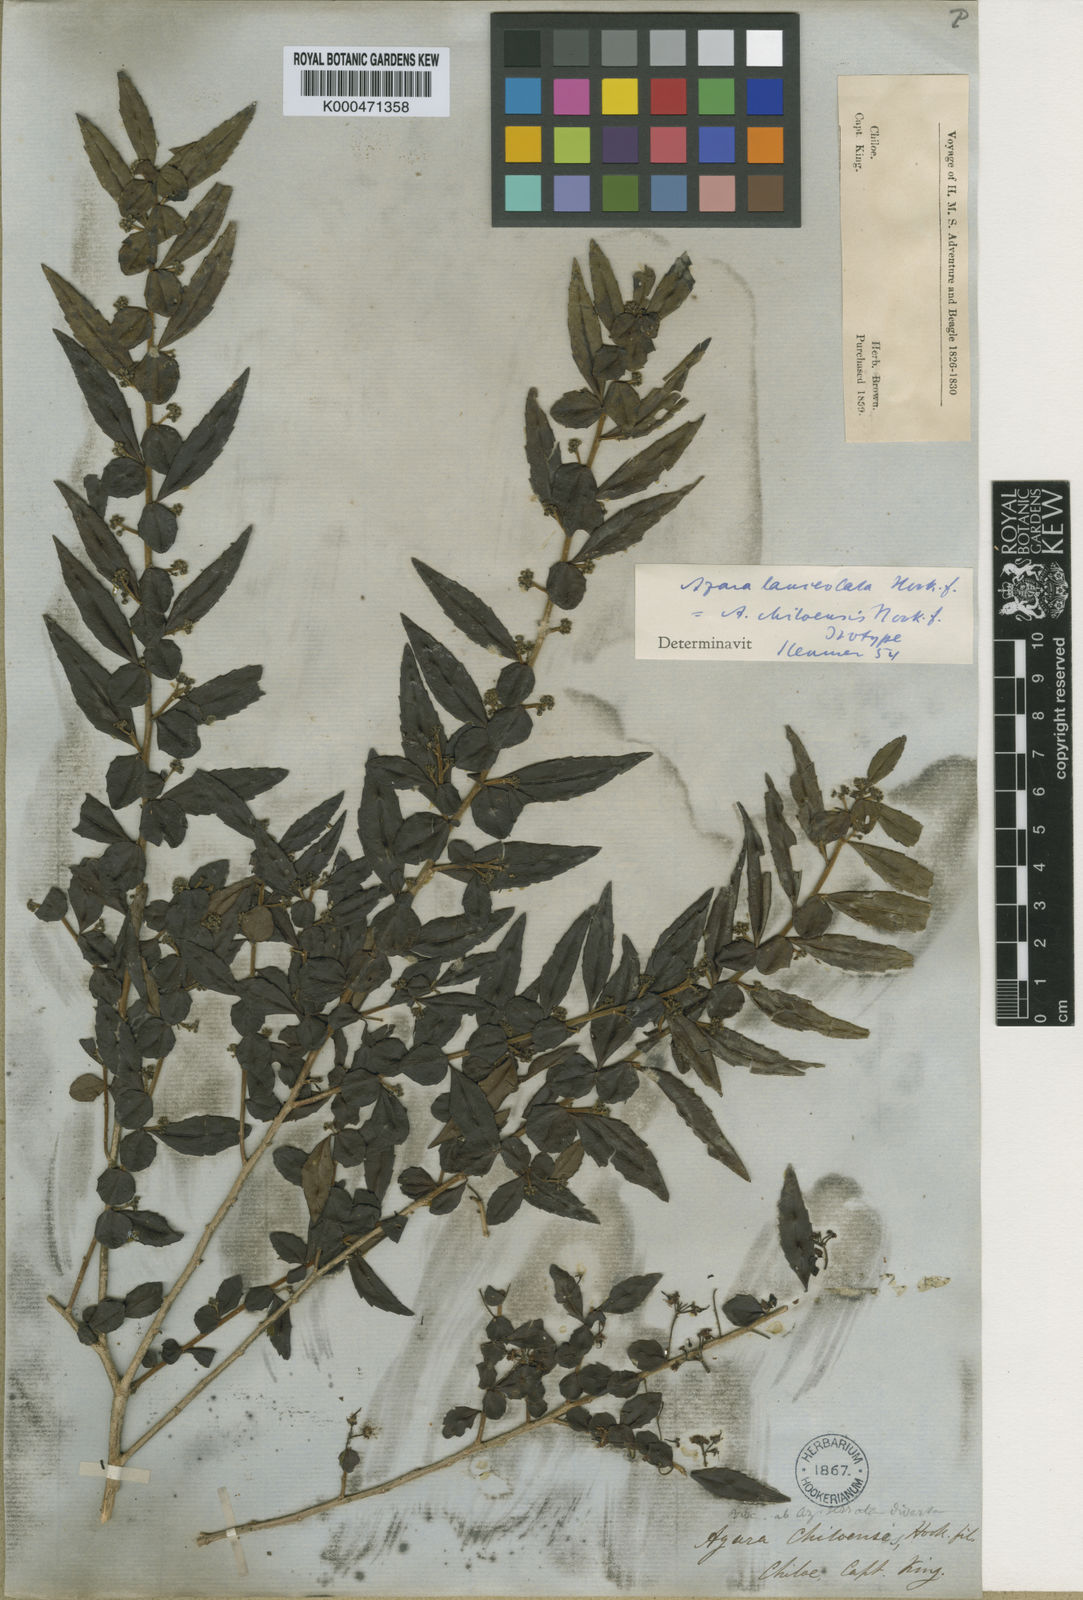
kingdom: Plantae
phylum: Tracheophyta
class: Magnoliopsida
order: Malpighiales
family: Salicaceae
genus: Azara
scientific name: Azara lanceolata
